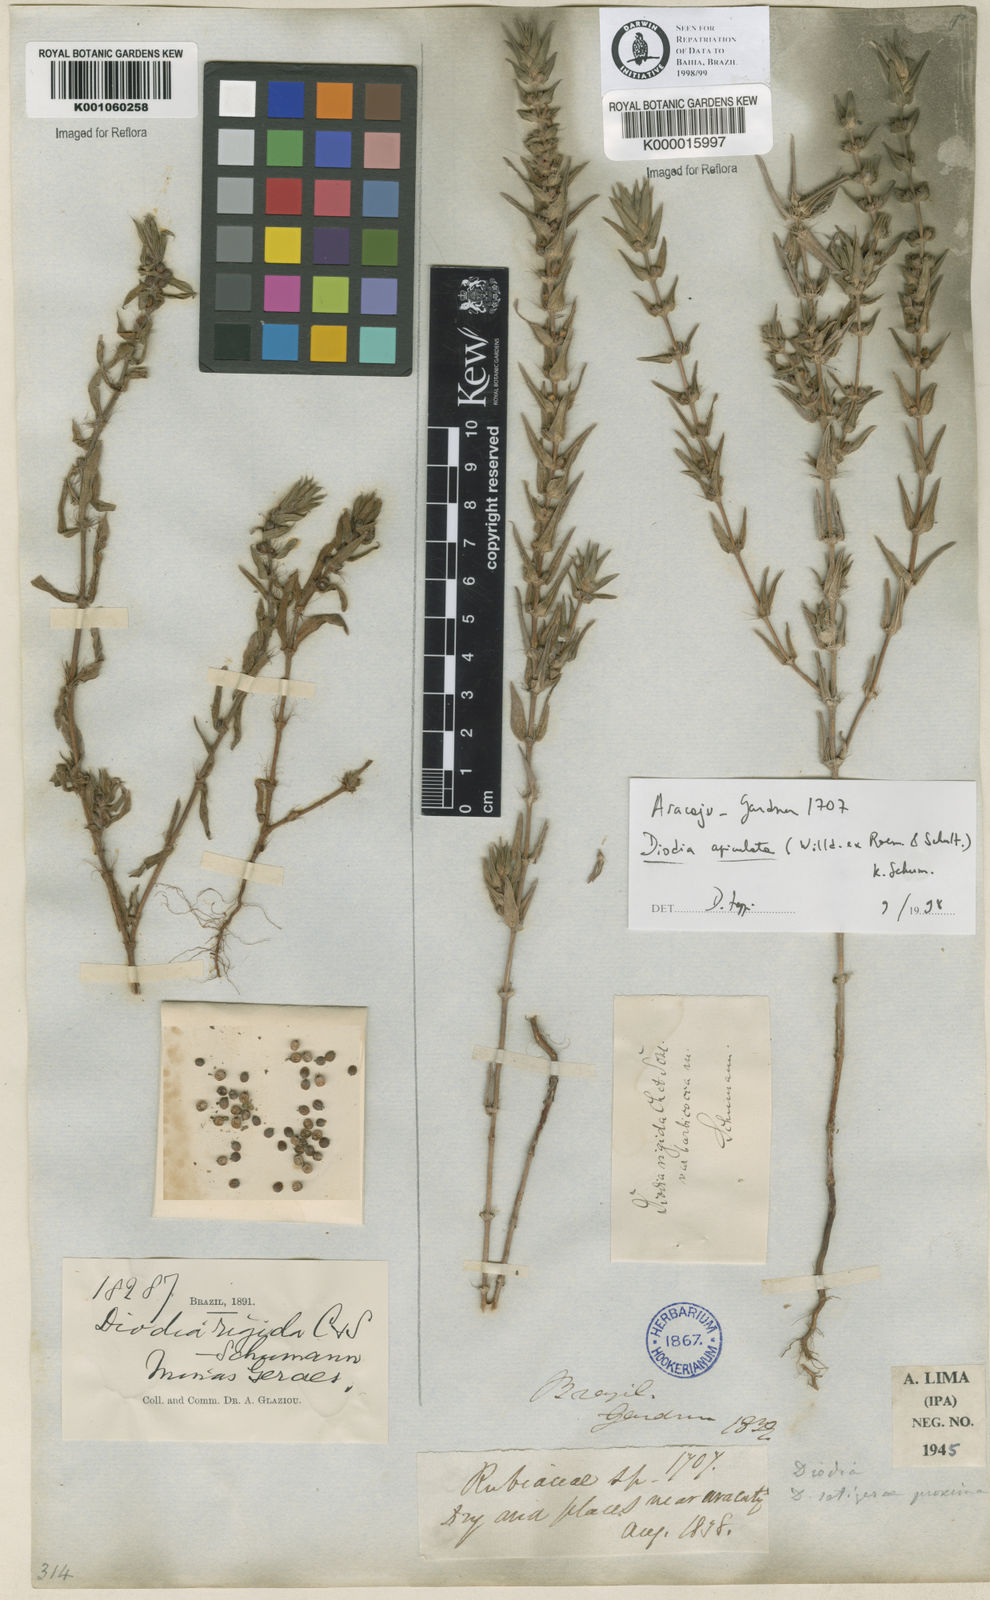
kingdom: Plantae
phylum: Tracheophyta
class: Magnoliopsida
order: Gentianales
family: Rubiaceae
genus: Hexasepalum
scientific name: Hexasepalum apiculatum
